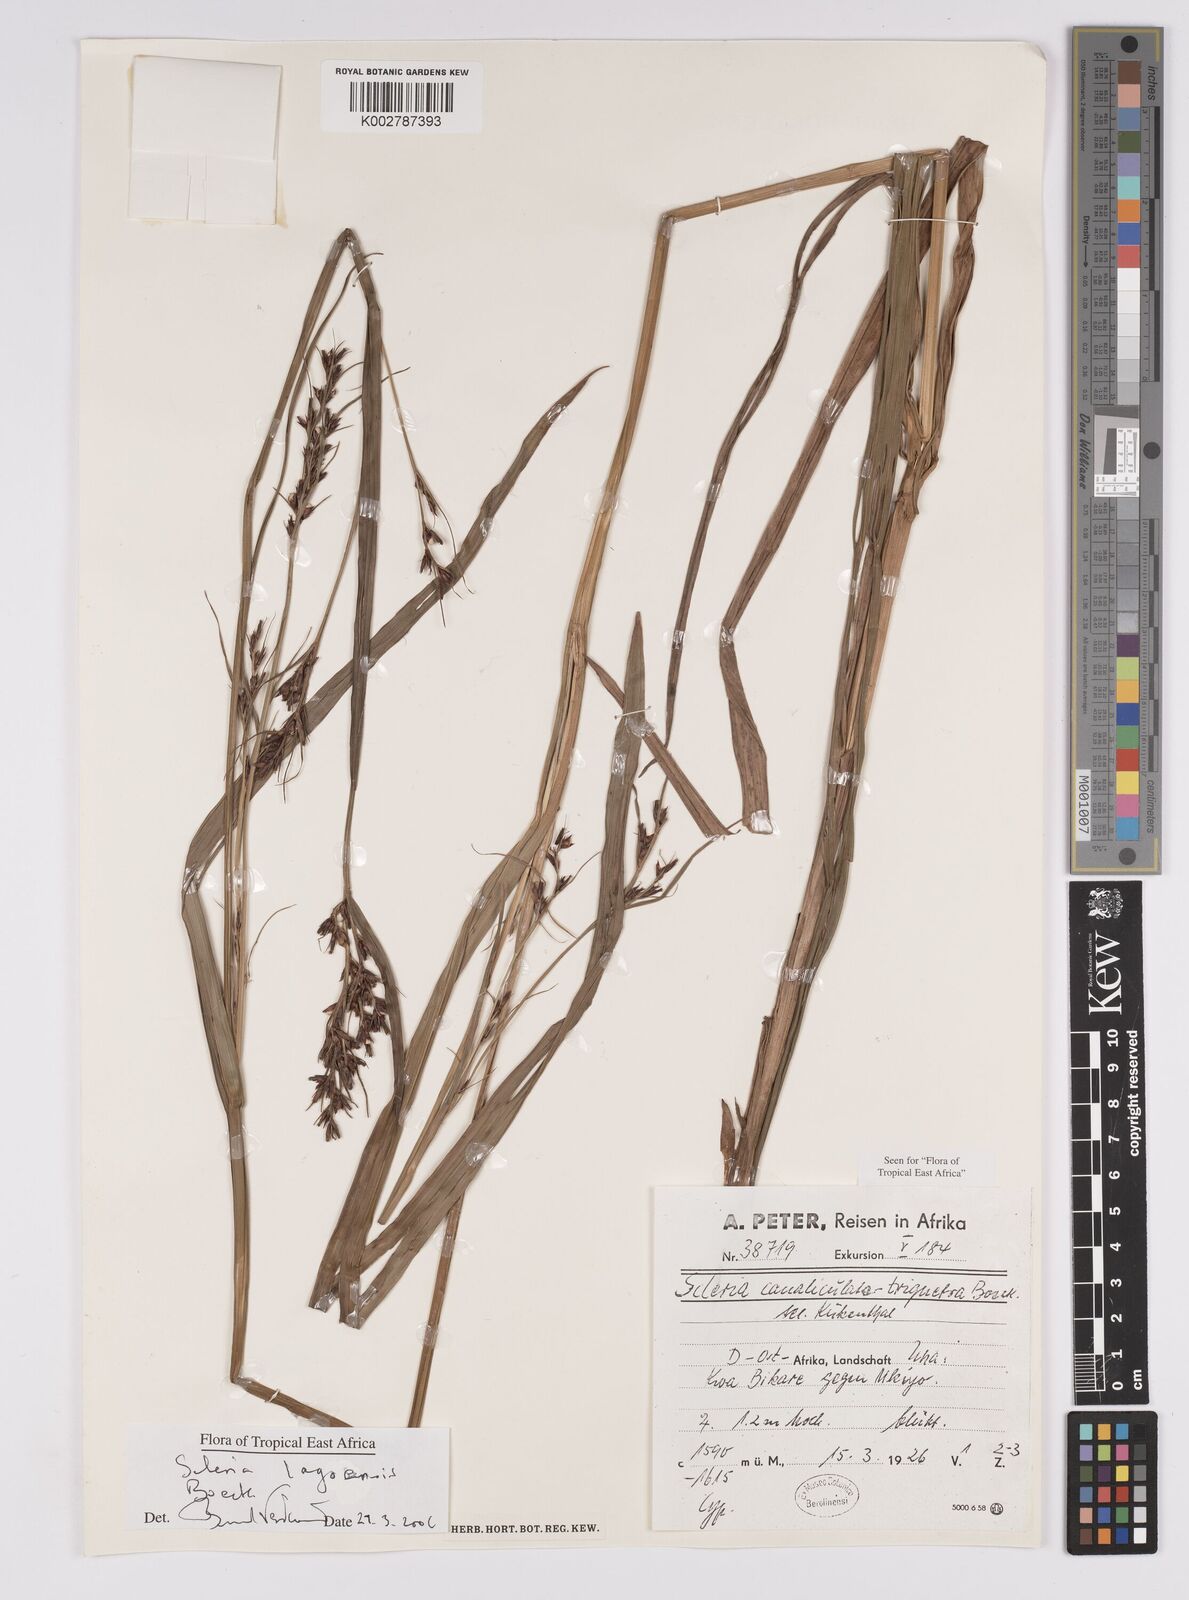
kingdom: Plantae
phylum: Tracheophyta
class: Liliopsida
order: Poales
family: Cyperaceae
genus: Scleria
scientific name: Scleria lagoensis
